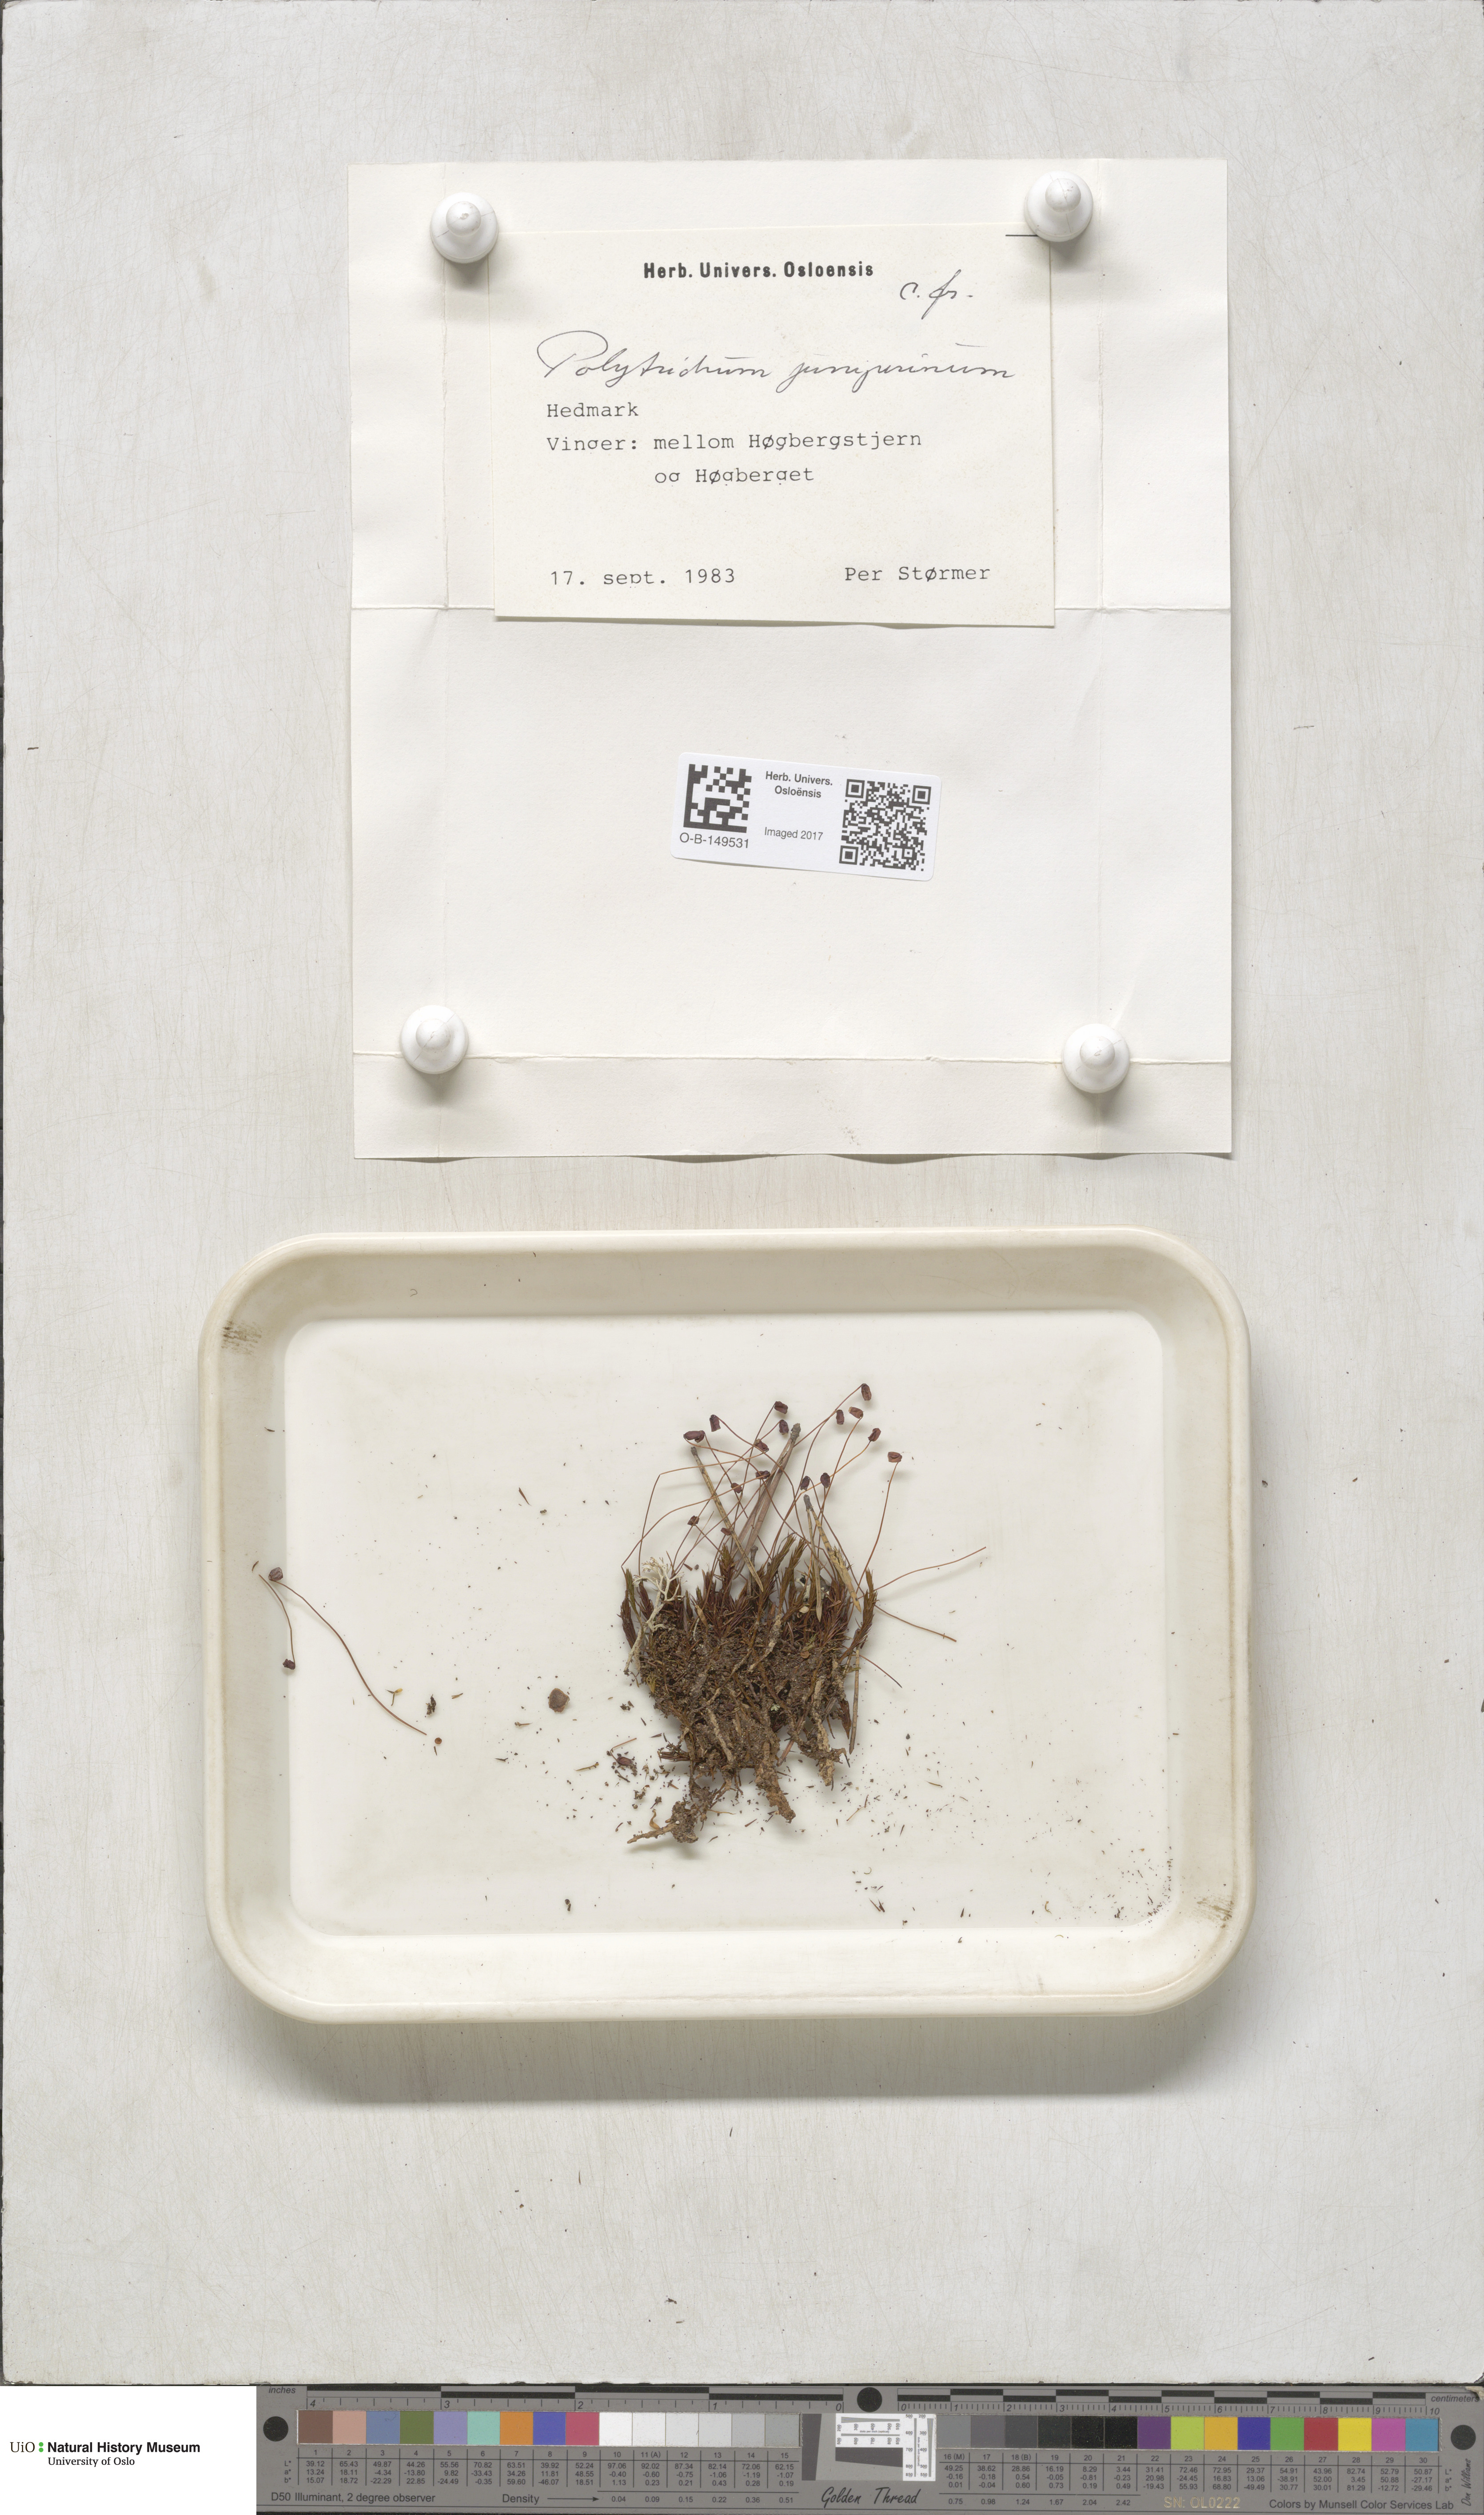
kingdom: Plantae
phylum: Bryophyta
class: Polytrichopsida
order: Polytrichales
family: Polytrichaceae
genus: Polytrichum
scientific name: Polytrichum juniperinum
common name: Juniper haircap moss
